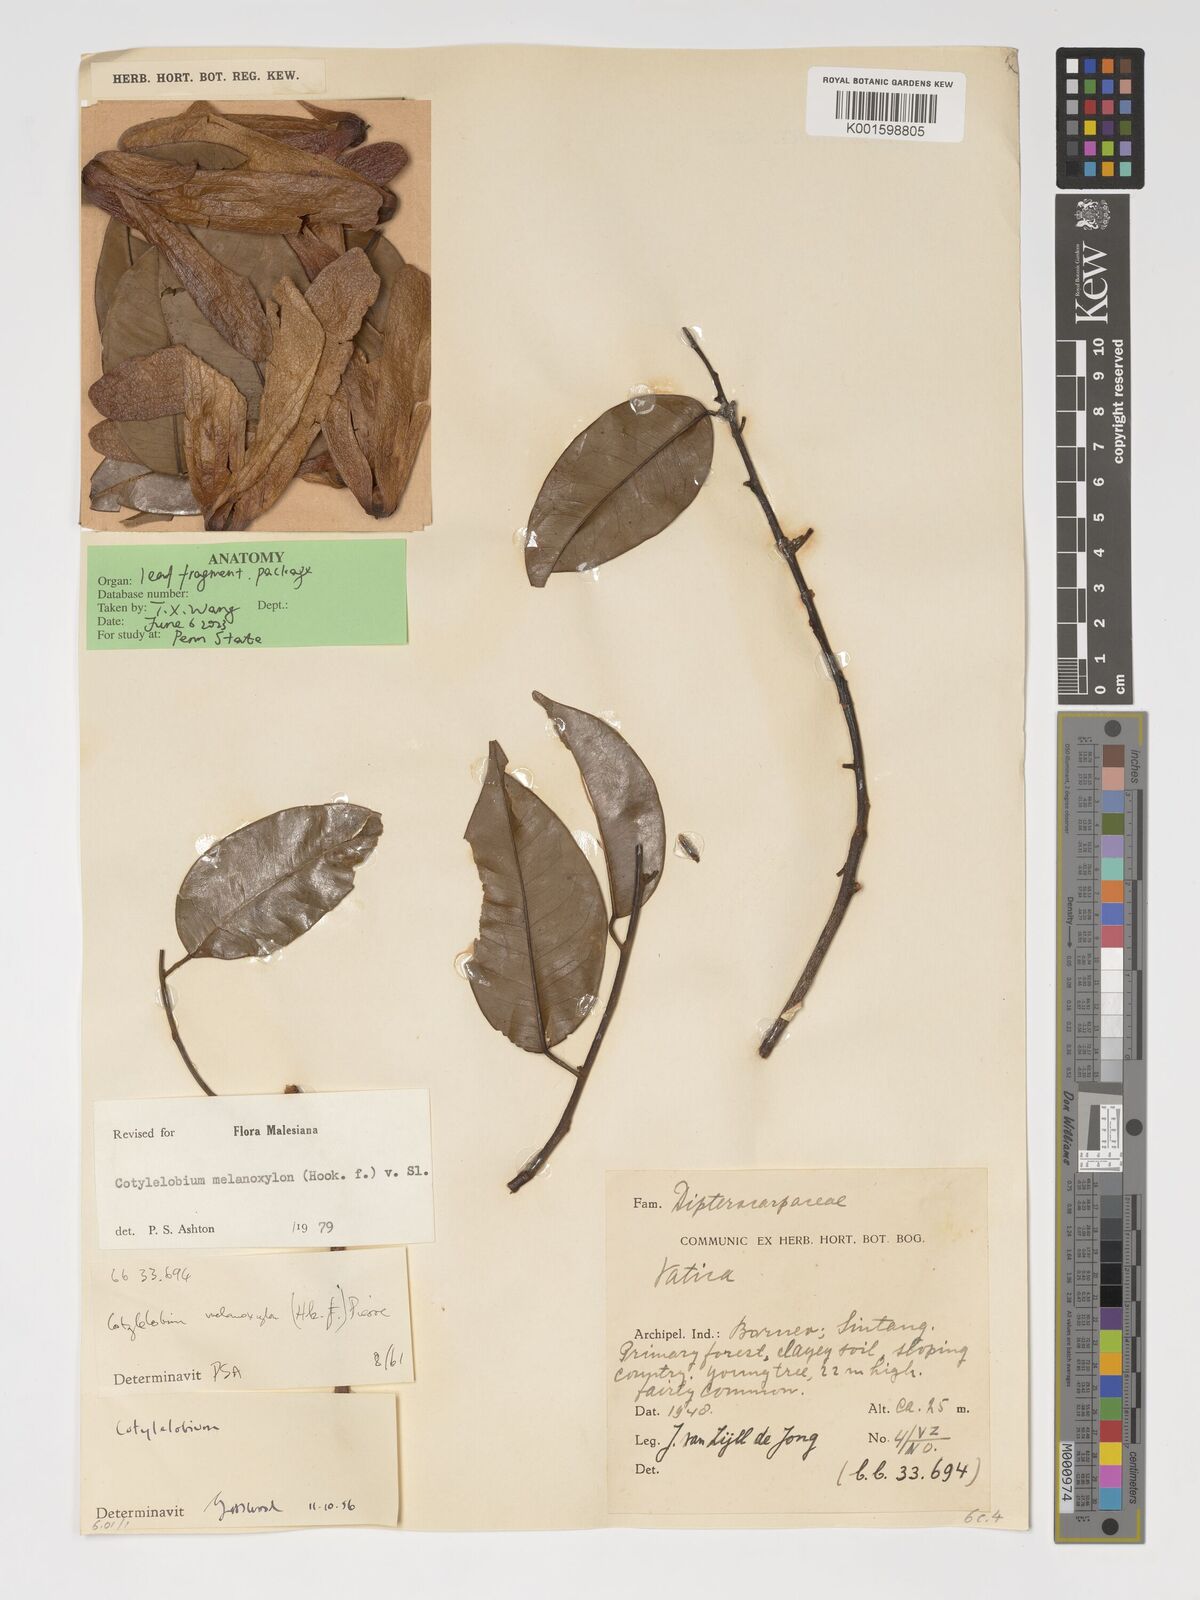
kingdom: Plantae
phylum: Tracheophyta
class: Magnoliopsida
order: Malvales
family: Dipterocarpaceae
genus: Cotylelobium
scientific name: Cotylelobium melanoxylon
